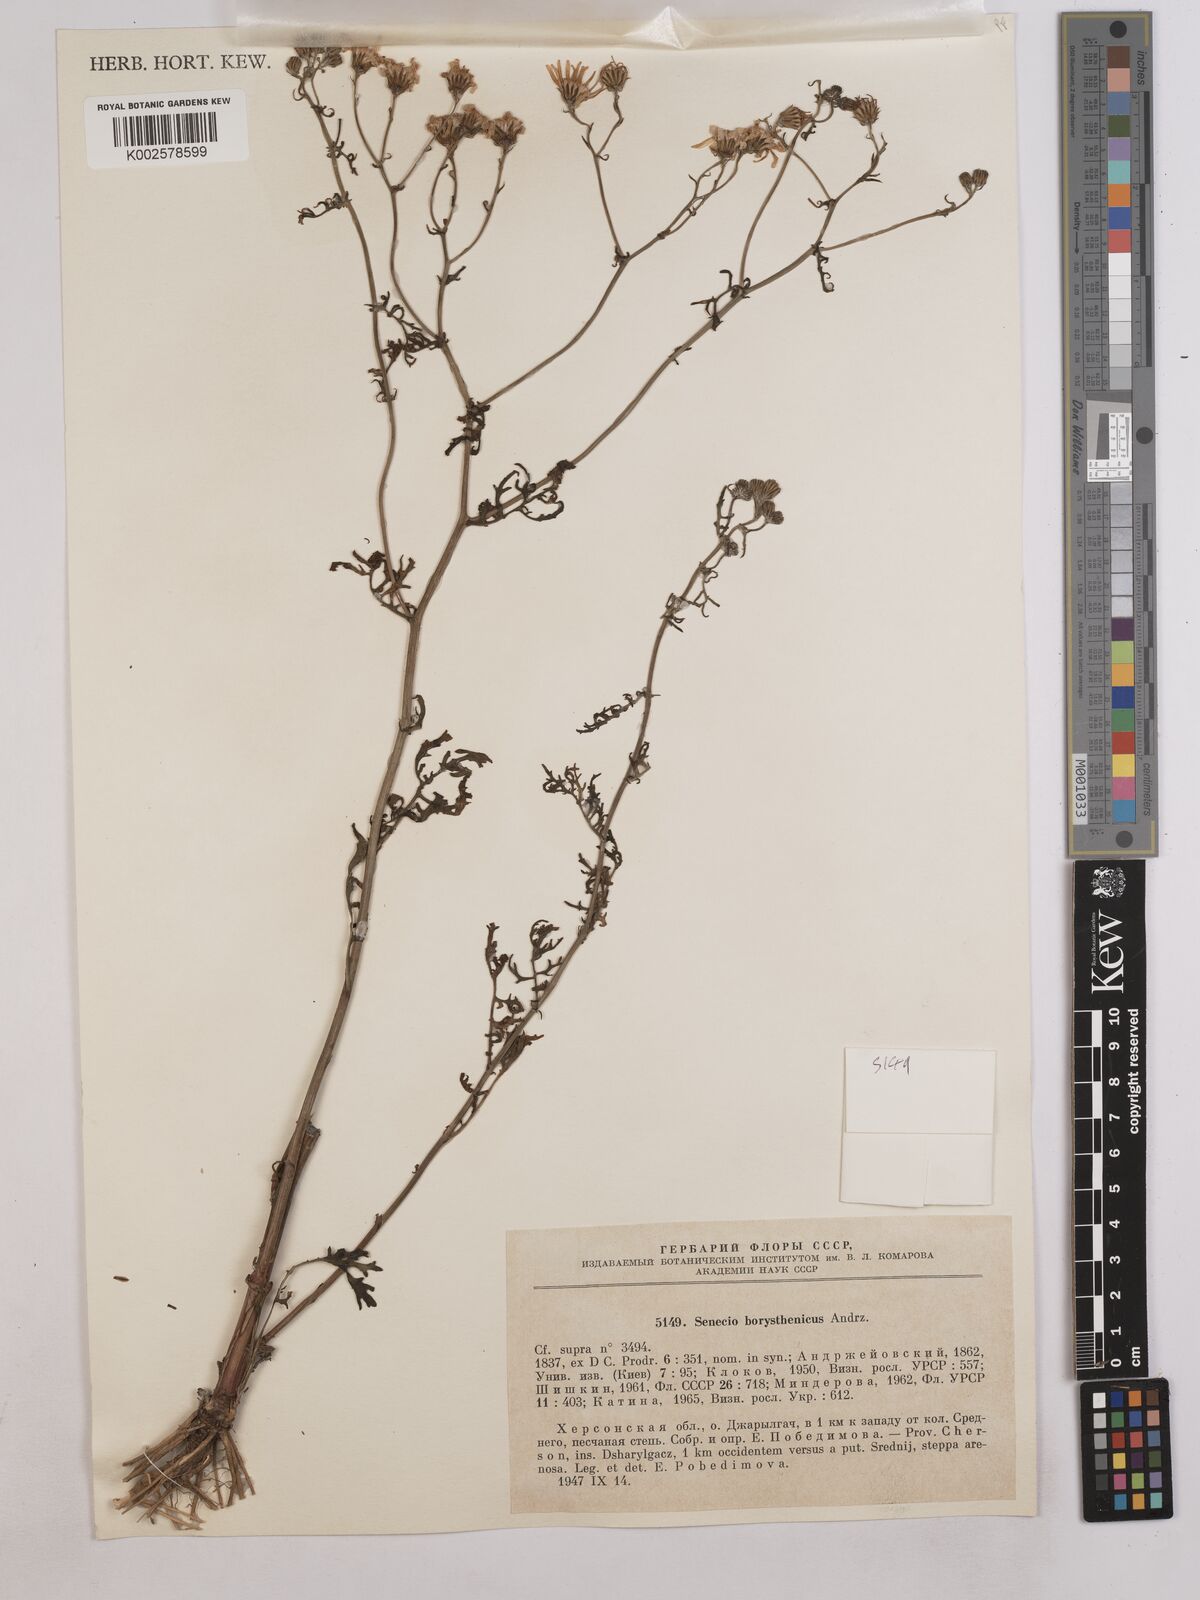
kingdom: Plantae
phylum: Tracheophyta
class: Magnoliopsida
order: Asterales
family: Asteraceae
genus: Jacobaea
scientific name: Jacobaea vulgaris
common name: Stinking willie
